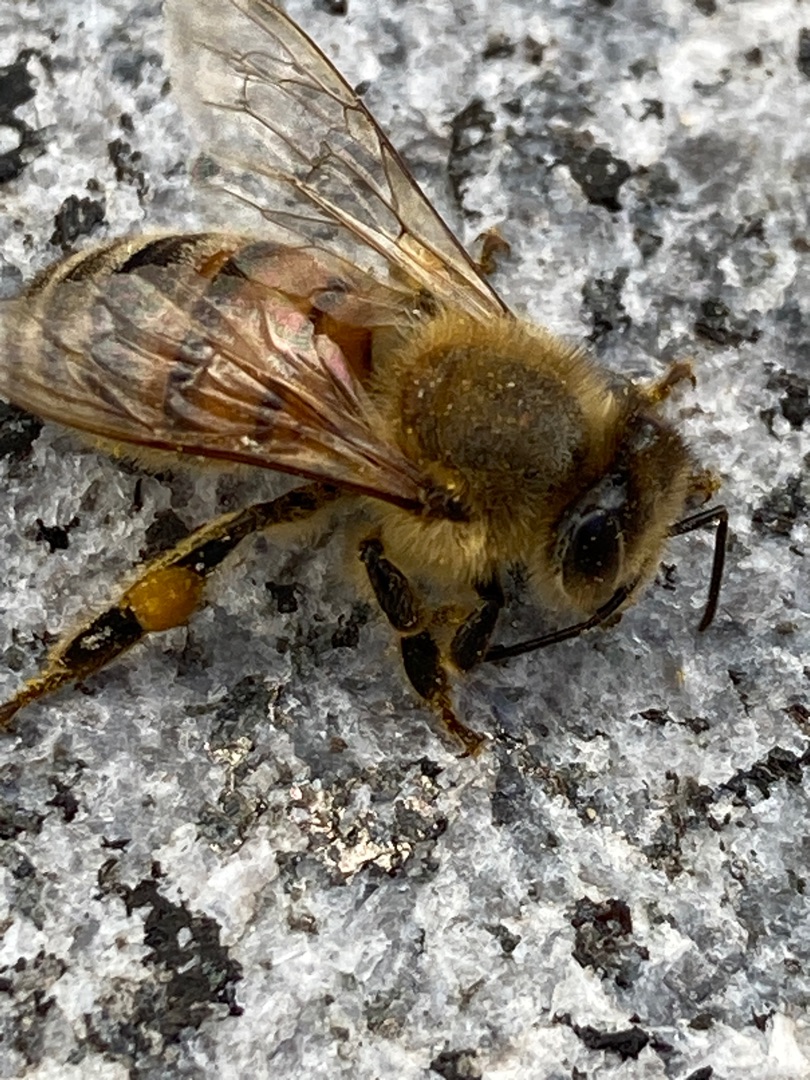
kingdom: Animalia
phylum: Arthropoda
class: Insecta
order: Hymenoptera
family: Apidae
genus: Apis
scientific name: Apis mellifera
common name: Honningbi
